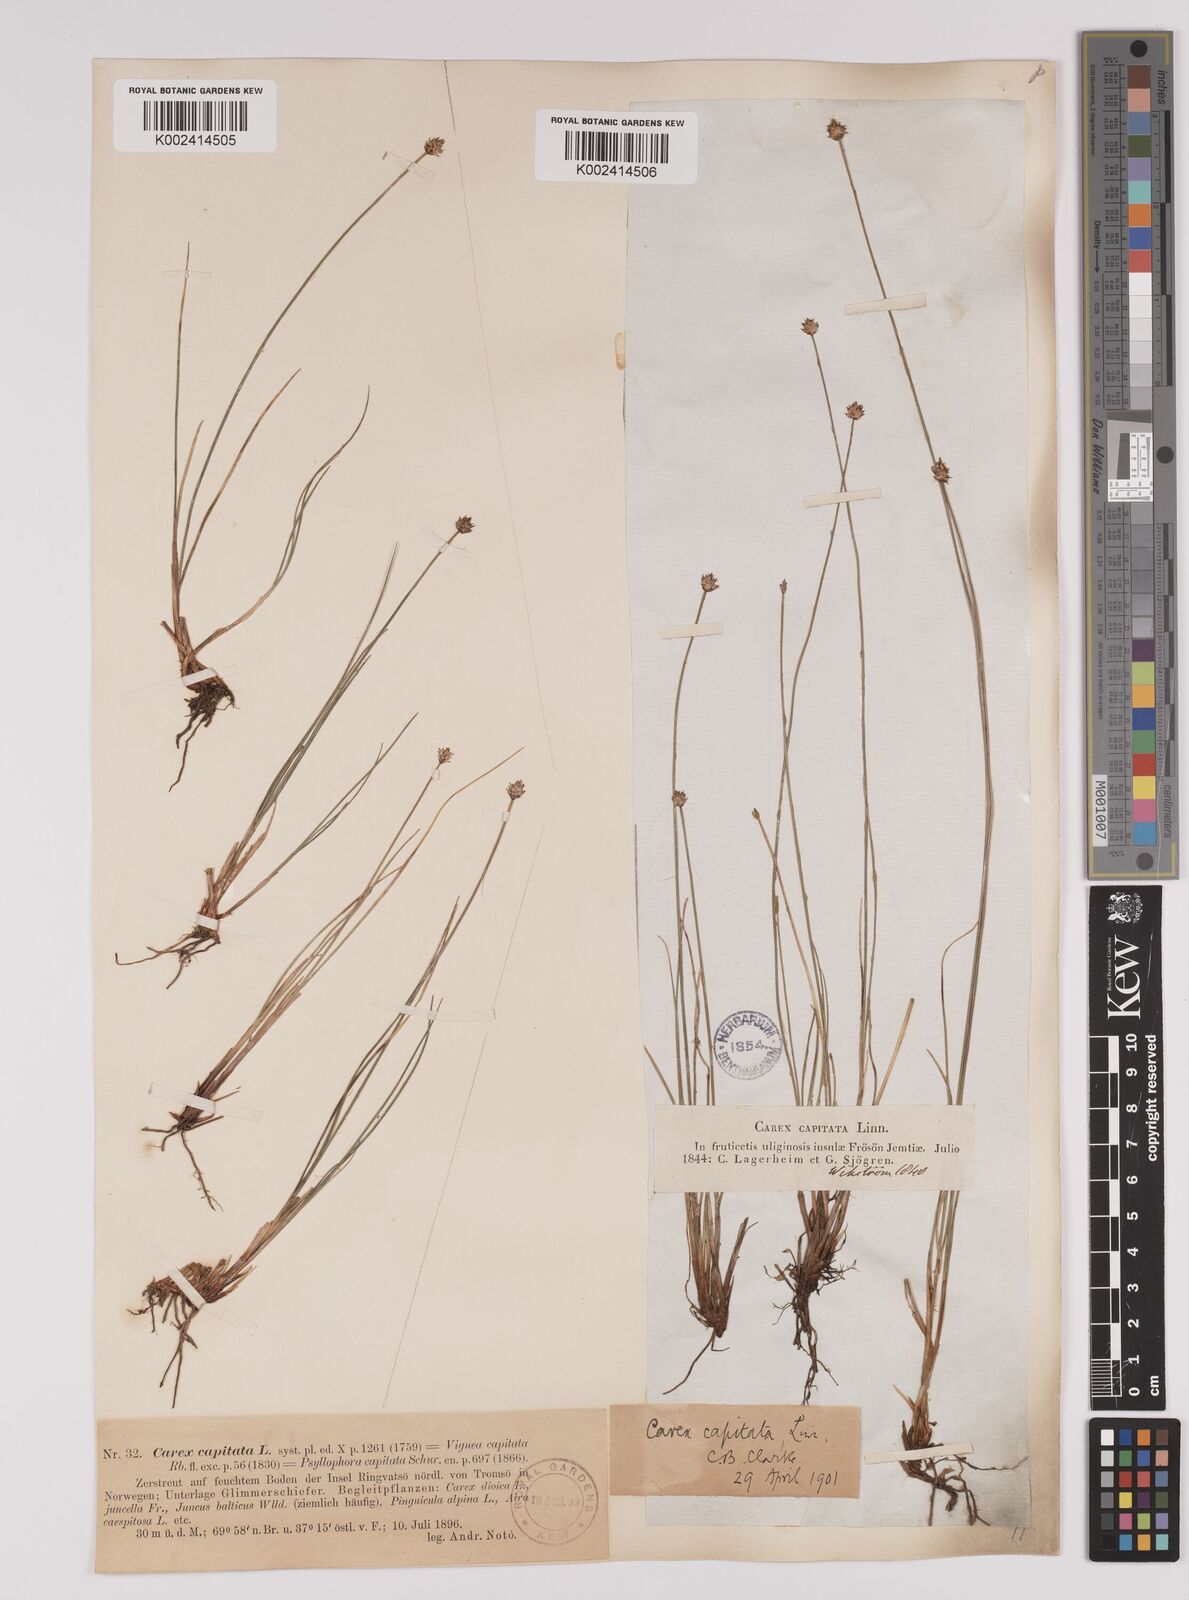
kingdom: Plantae
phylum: Tracheophyta
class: Liliopsida
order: Poales
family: Cyperaceae
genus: Carex
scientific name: Carex capitata
